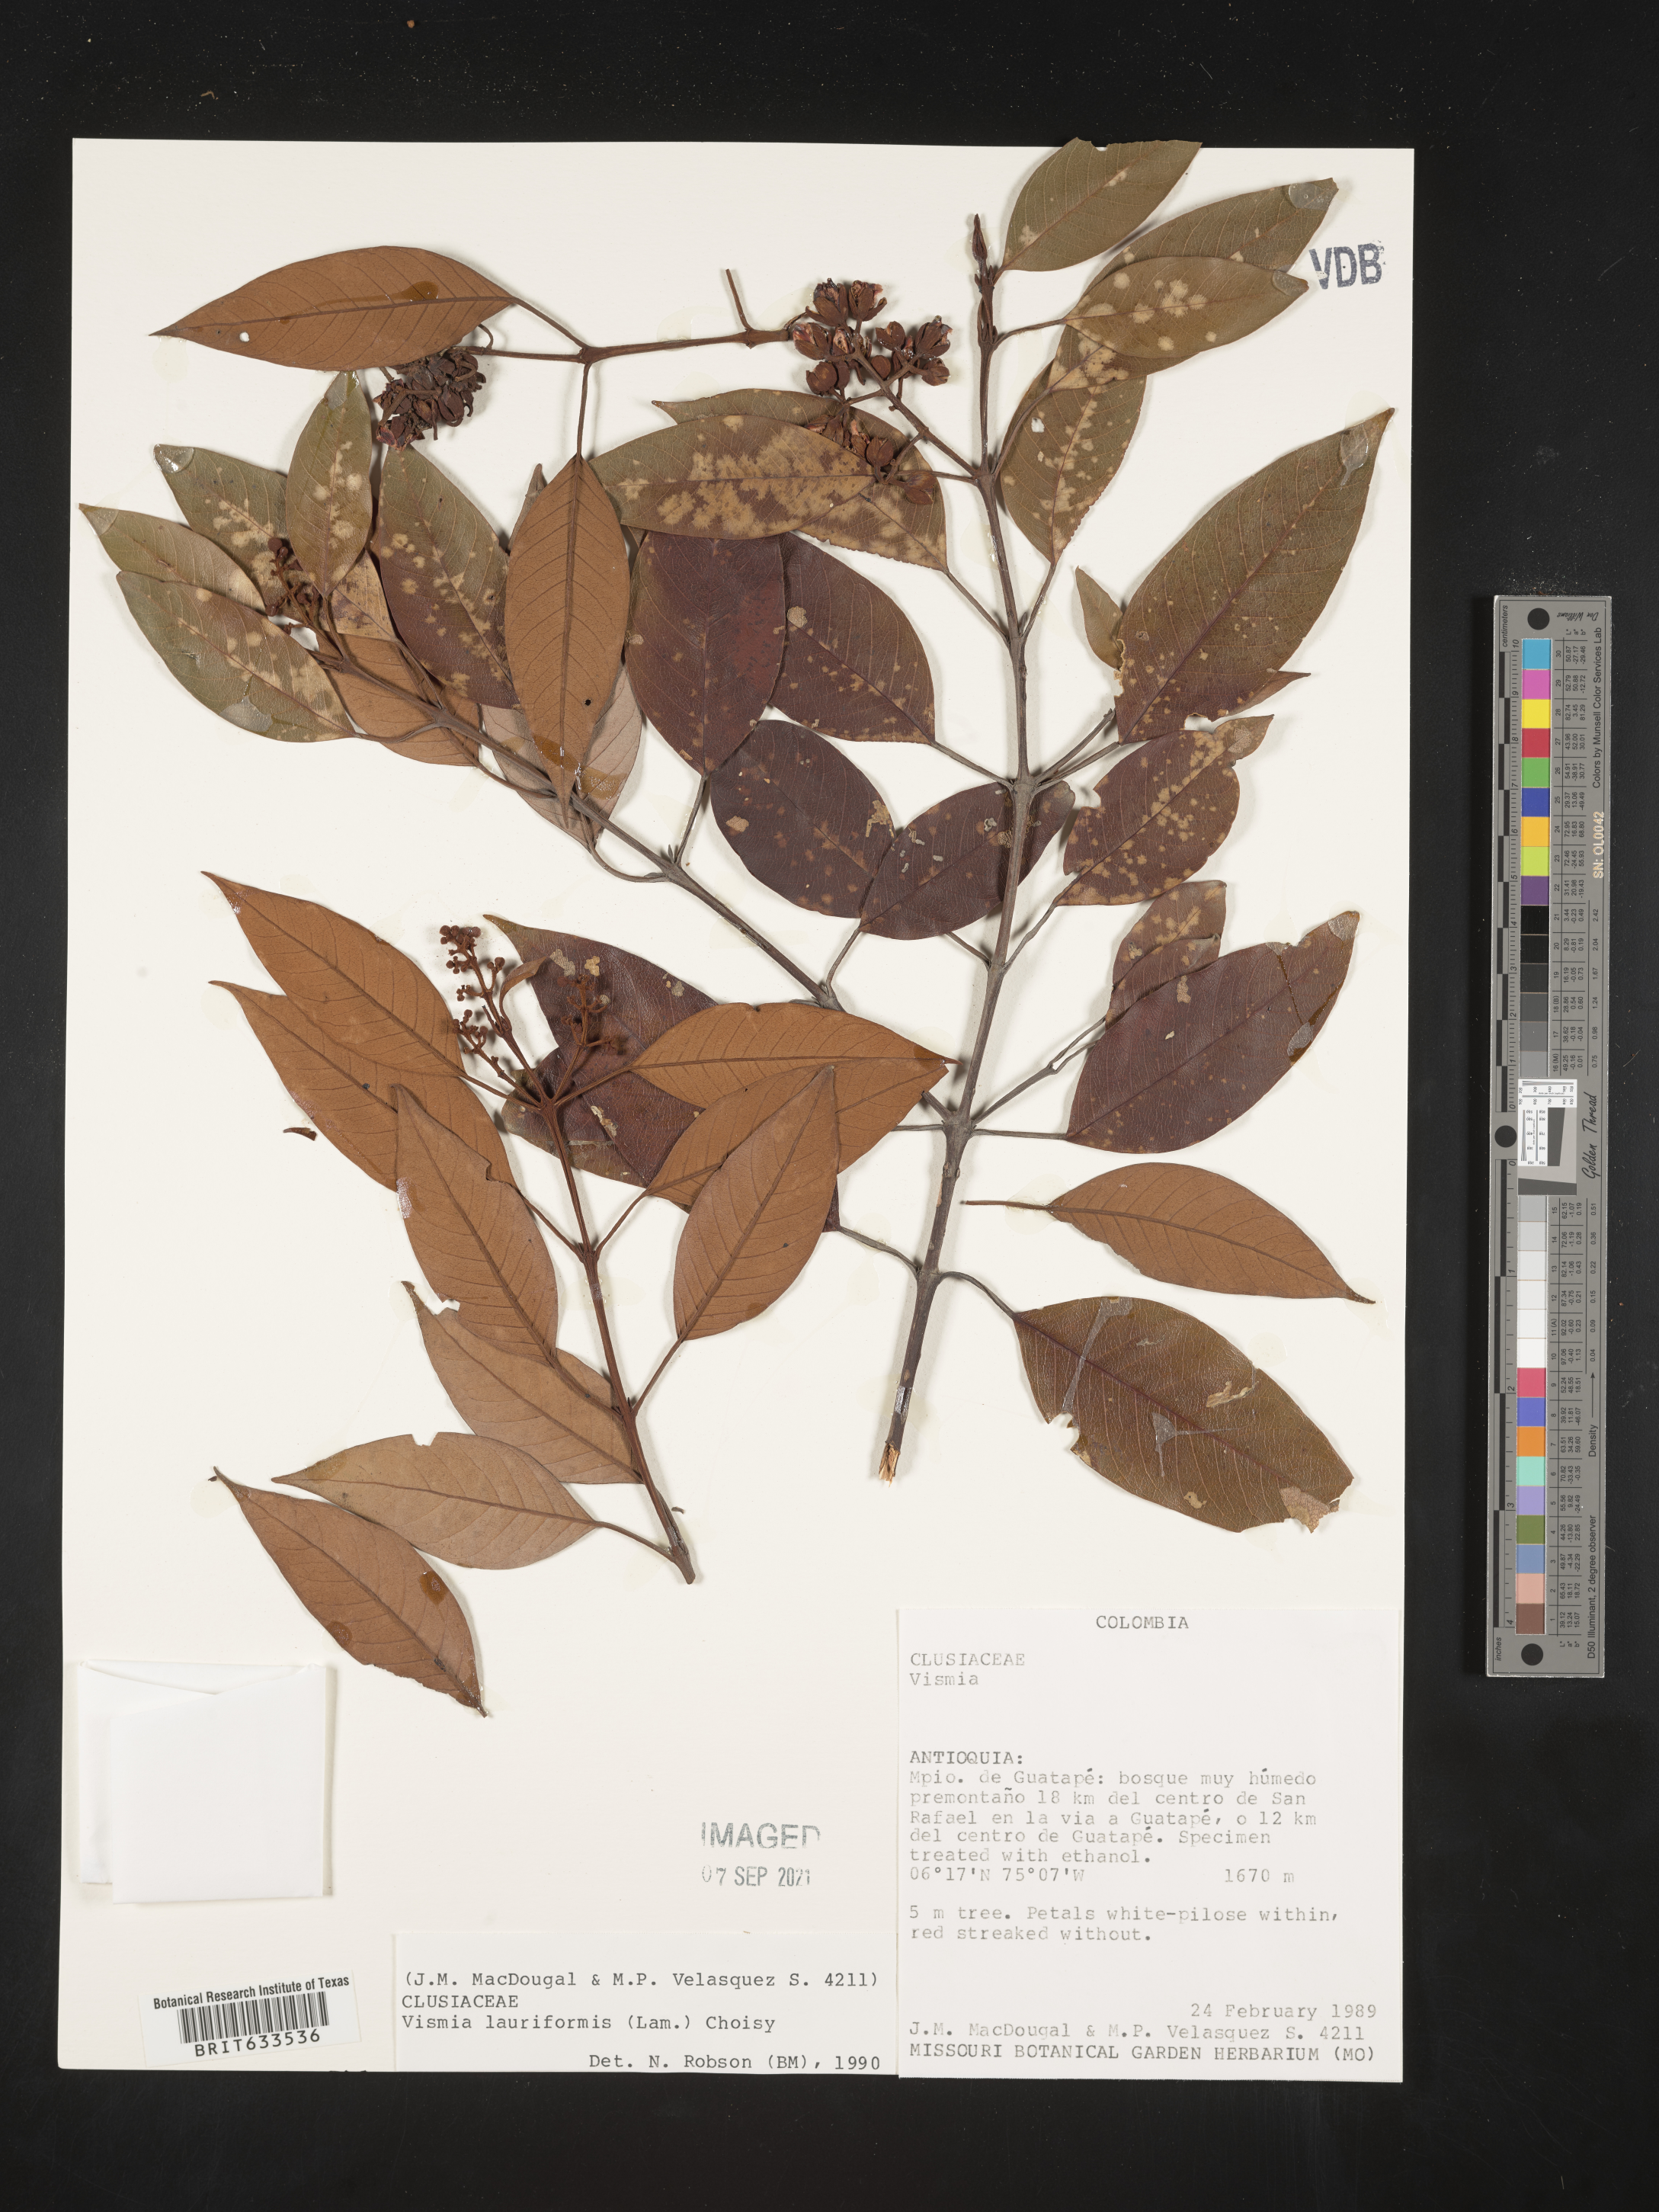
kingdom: Plantae
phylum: Tracheophyta
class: Magnoliopsida
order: Malpighiales
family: Hypericaceae
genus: Vismia
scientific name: Vismia
